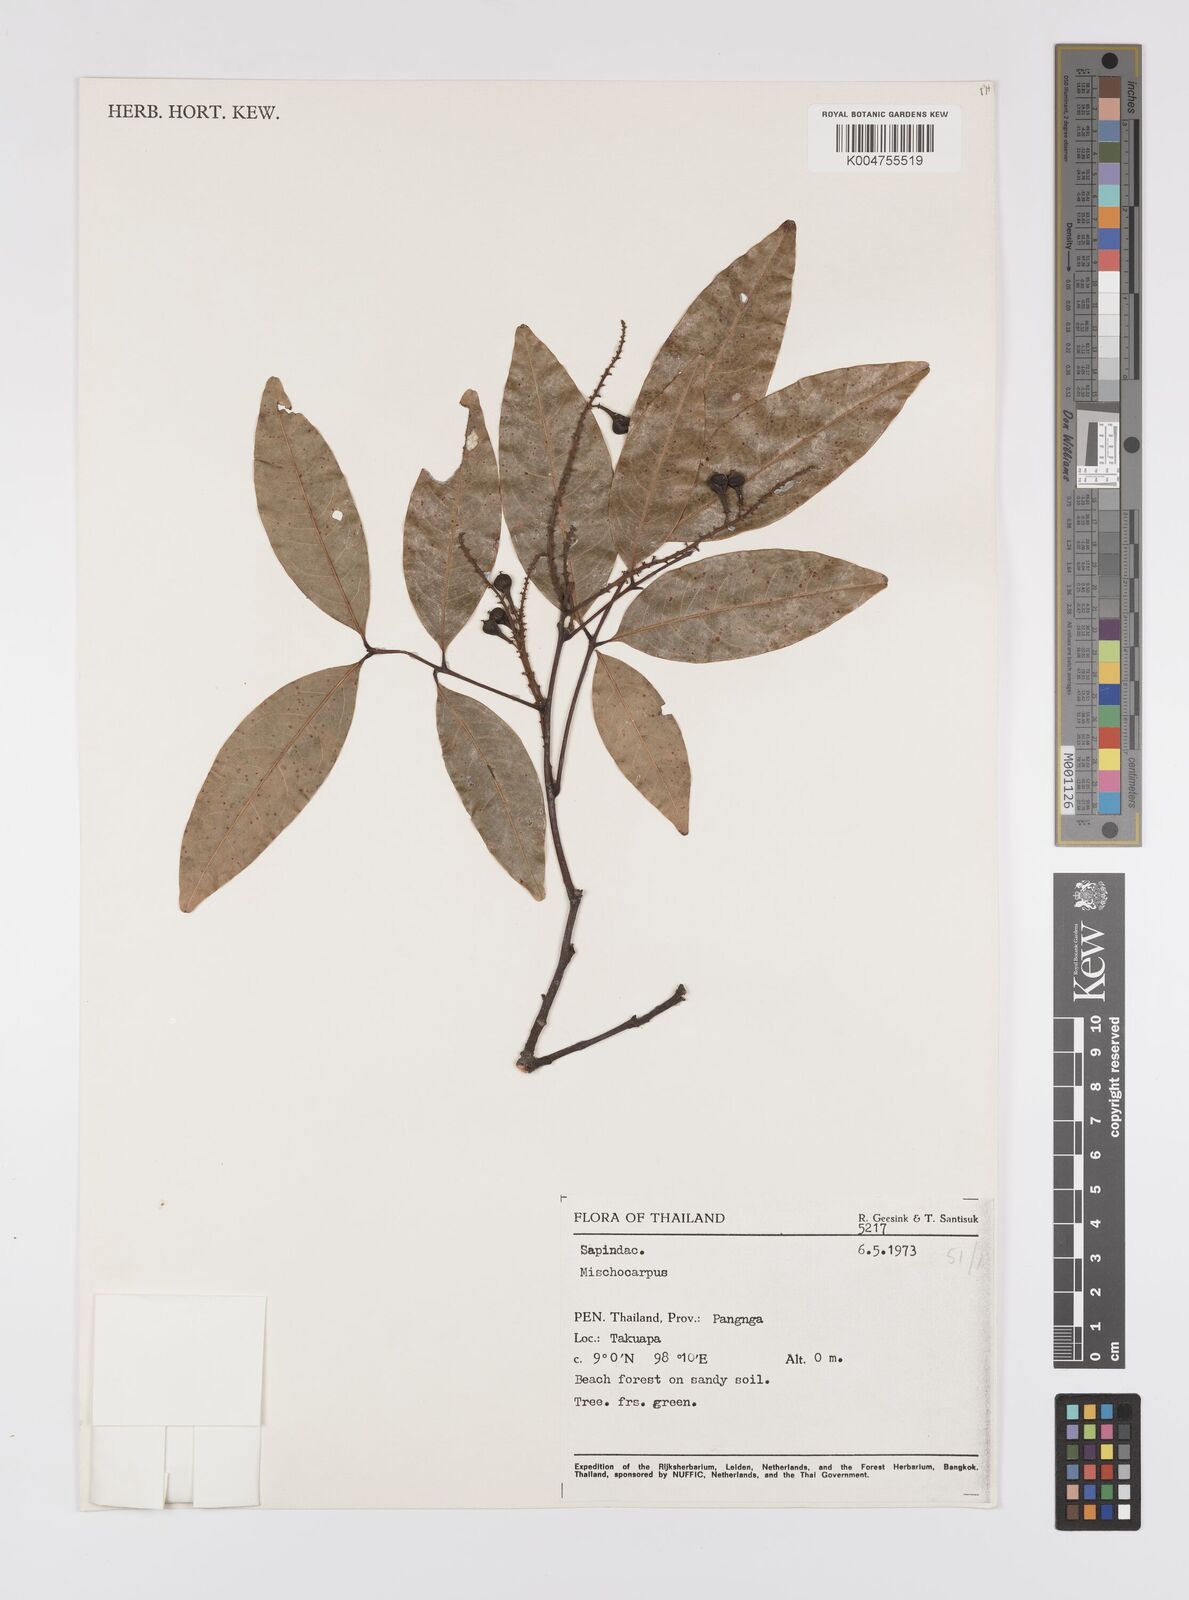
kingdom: Plantae
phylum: Tracheophyta
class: Magnoliopsida
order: Sapindales
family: Sapindaceae
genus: Mischocarpus
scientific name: Mischocarpus
